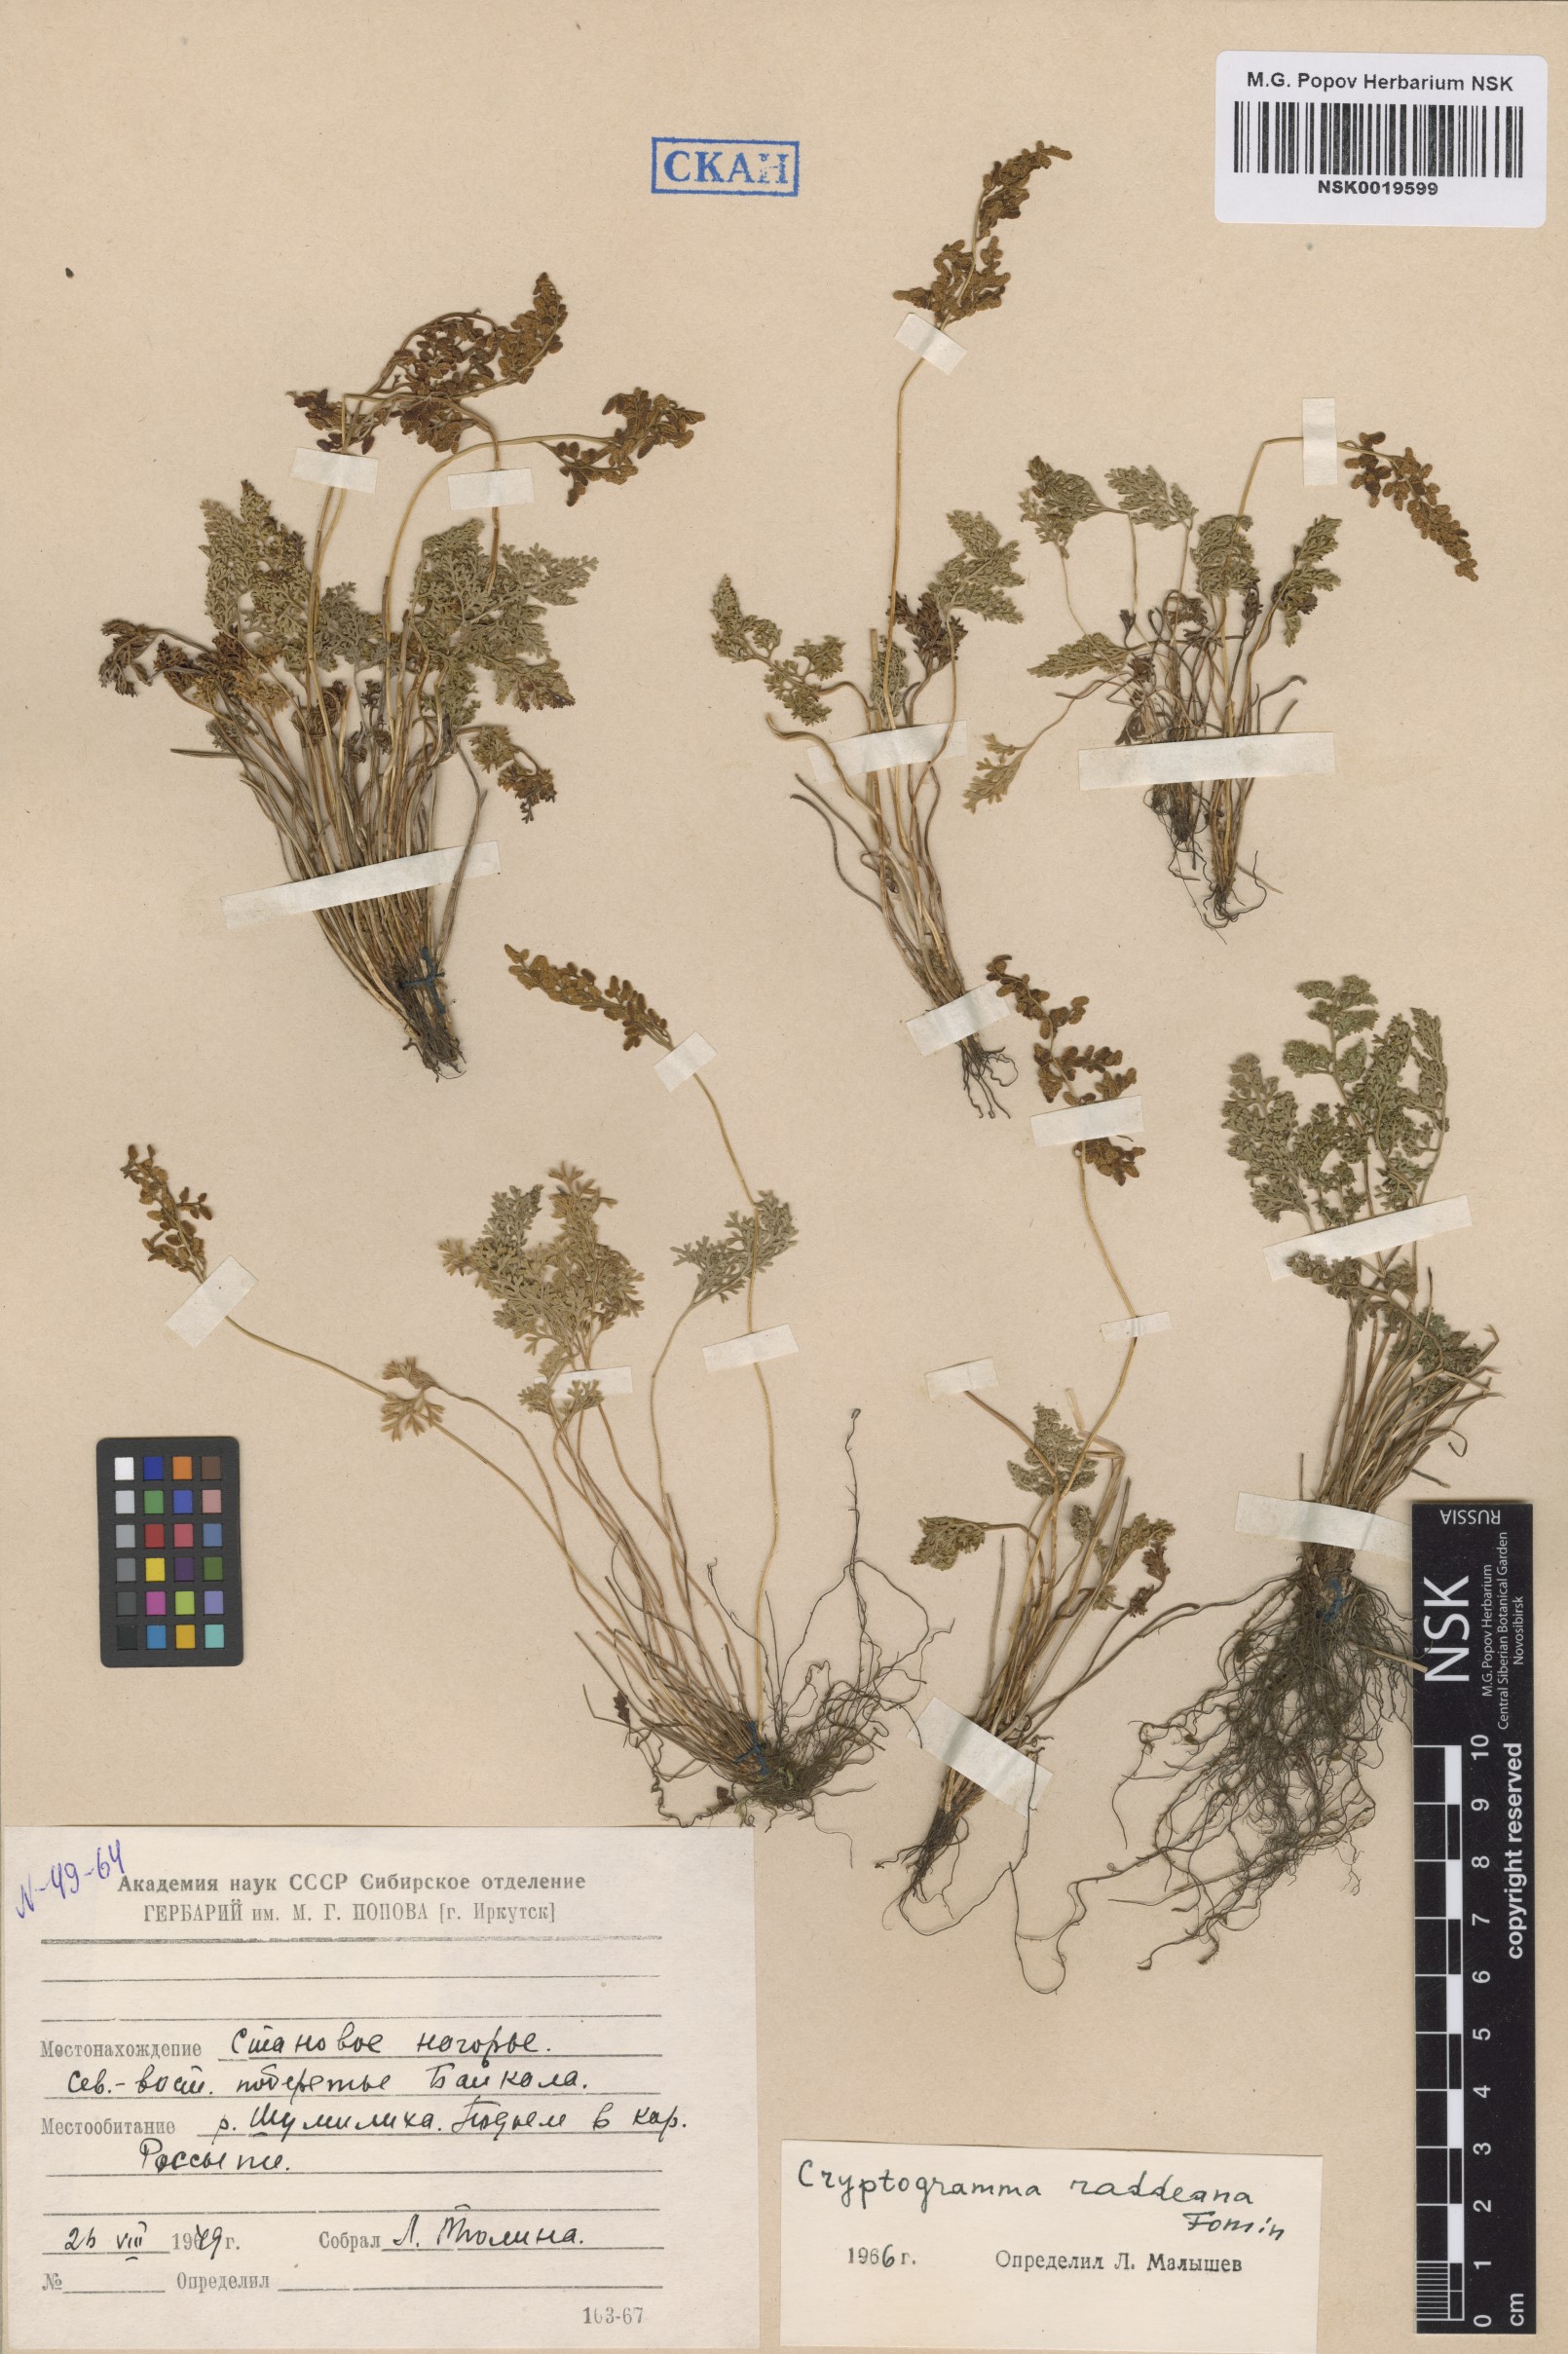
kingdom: Plantae
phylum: Tracheophyta
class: Polypodiopsida
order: Polypodiales
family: Pteridaceae
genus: Cryptogramma
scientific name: Cryptogramma brunoniana
